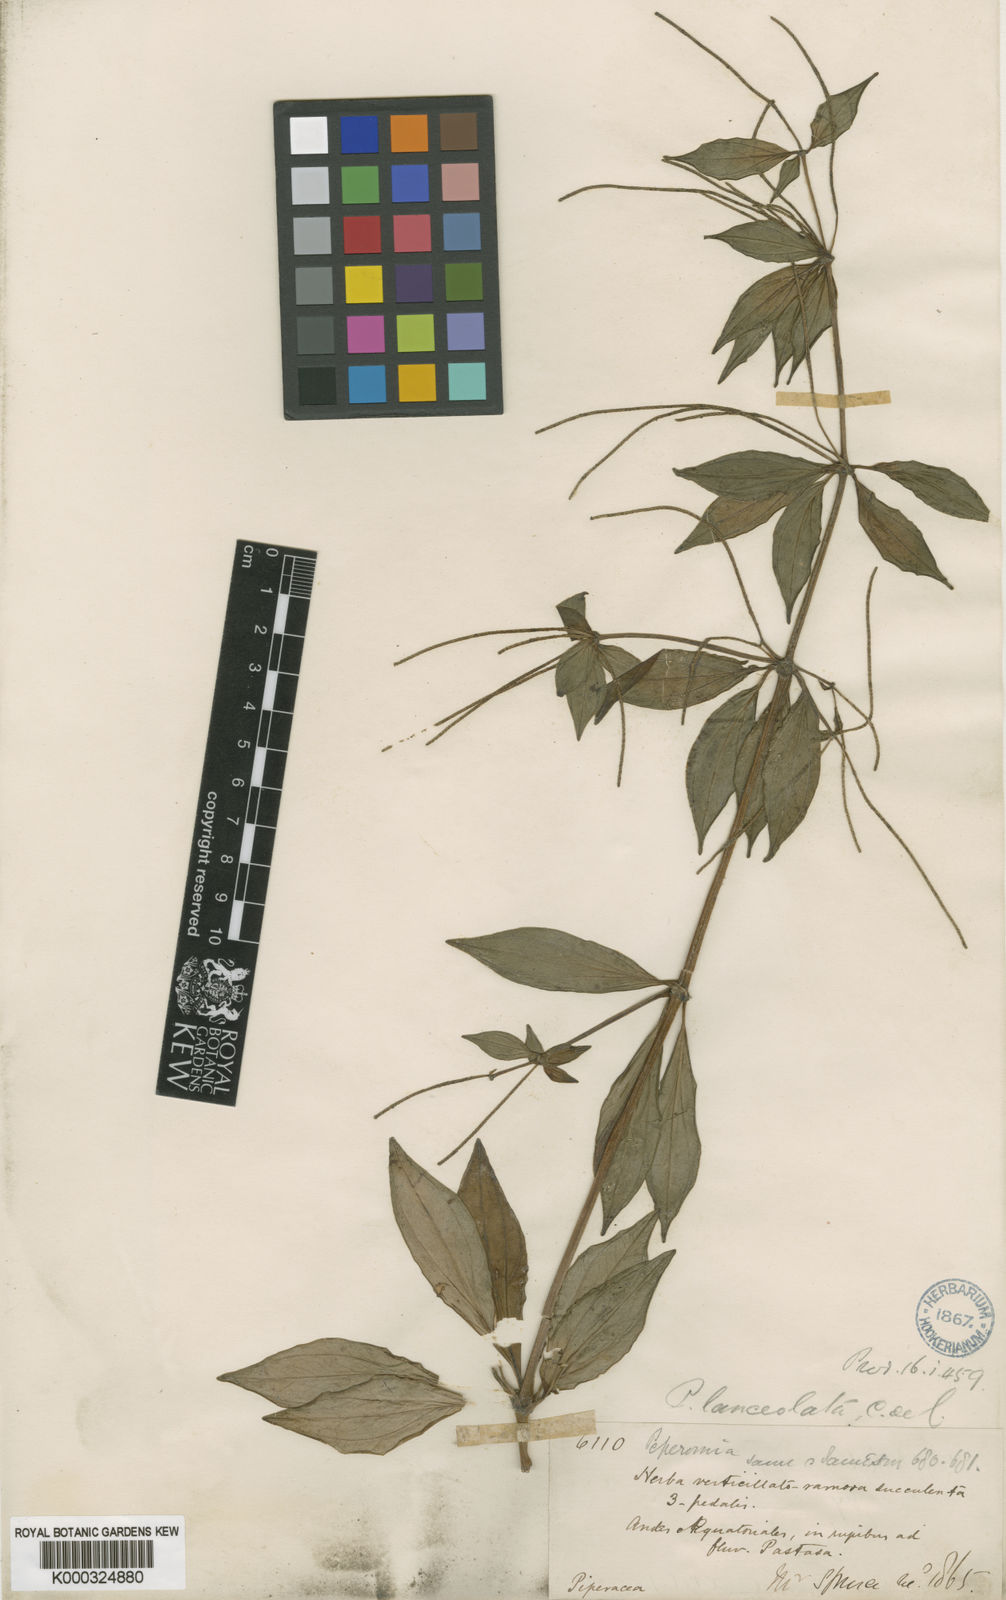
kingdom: Plantae
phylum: Tracheophyta
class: Magnoliopsida
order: Piperales
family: Piperaceae
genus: Peperomia
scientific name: Peperomia lanceolata
